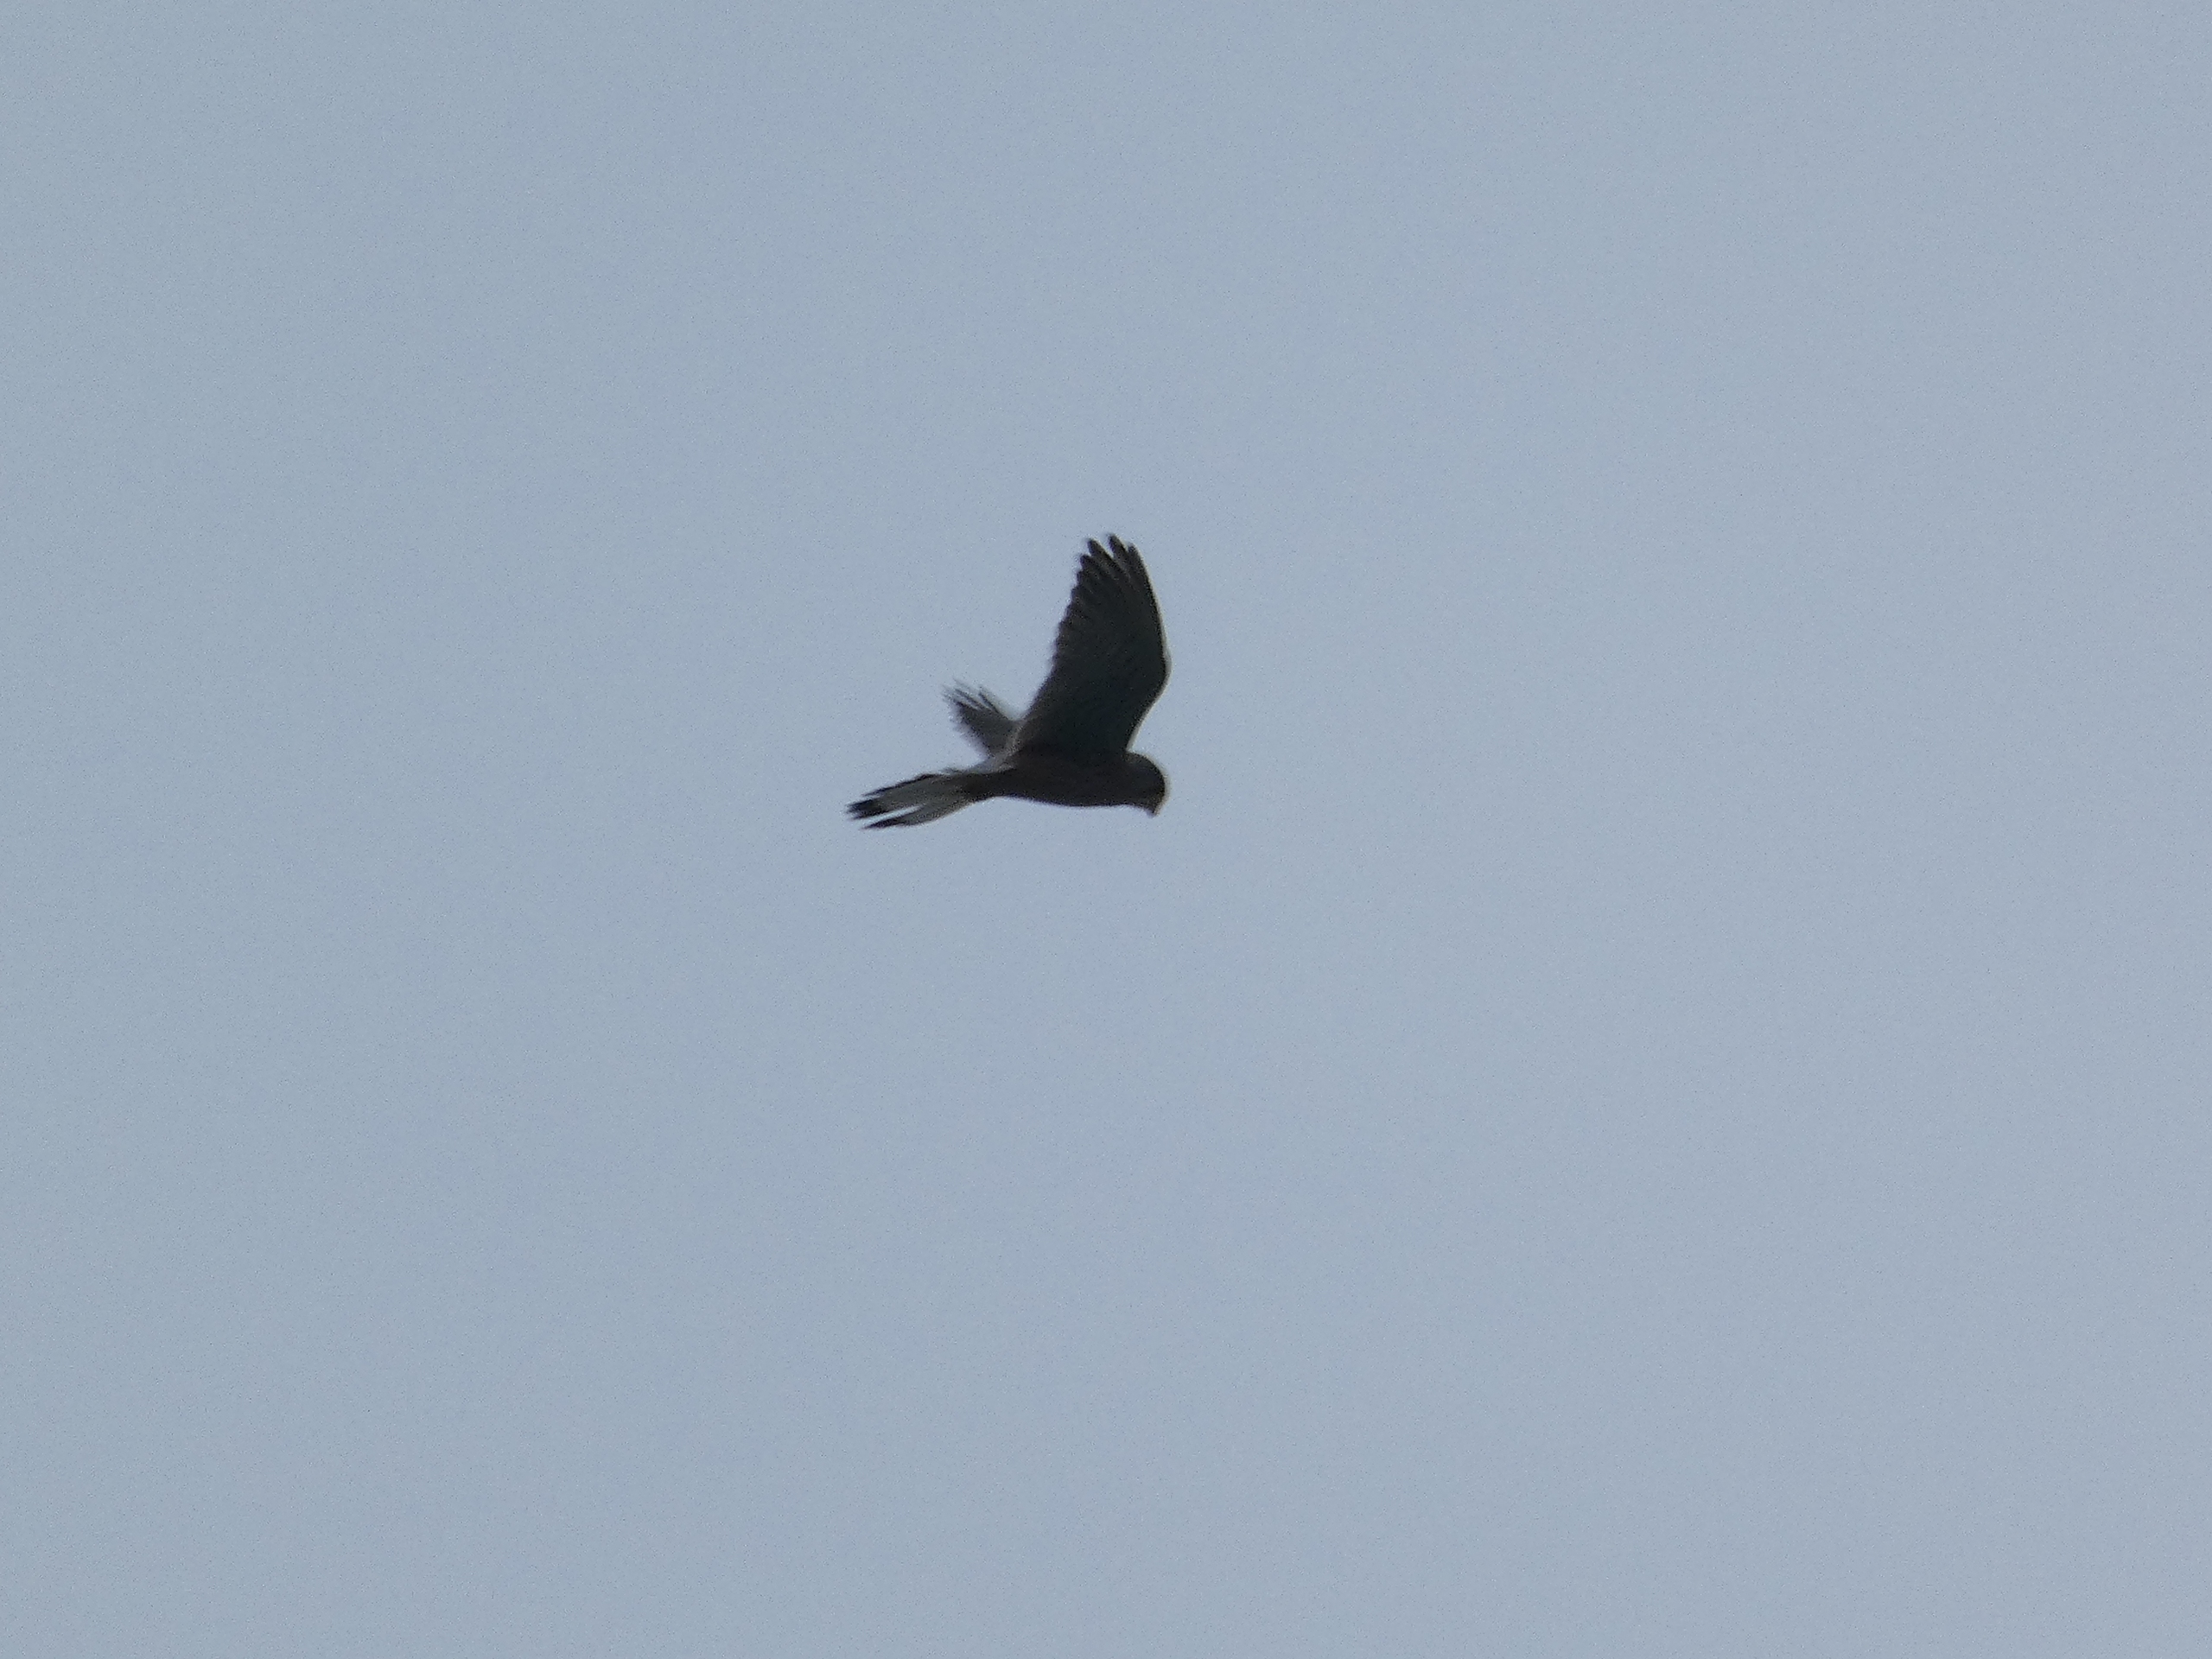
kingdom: Animalia
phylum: Chordata
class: Aves
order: Falconiformes
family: Falconidae
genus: Falco
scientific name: Falco tinnunculus
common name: Tårnfalk
